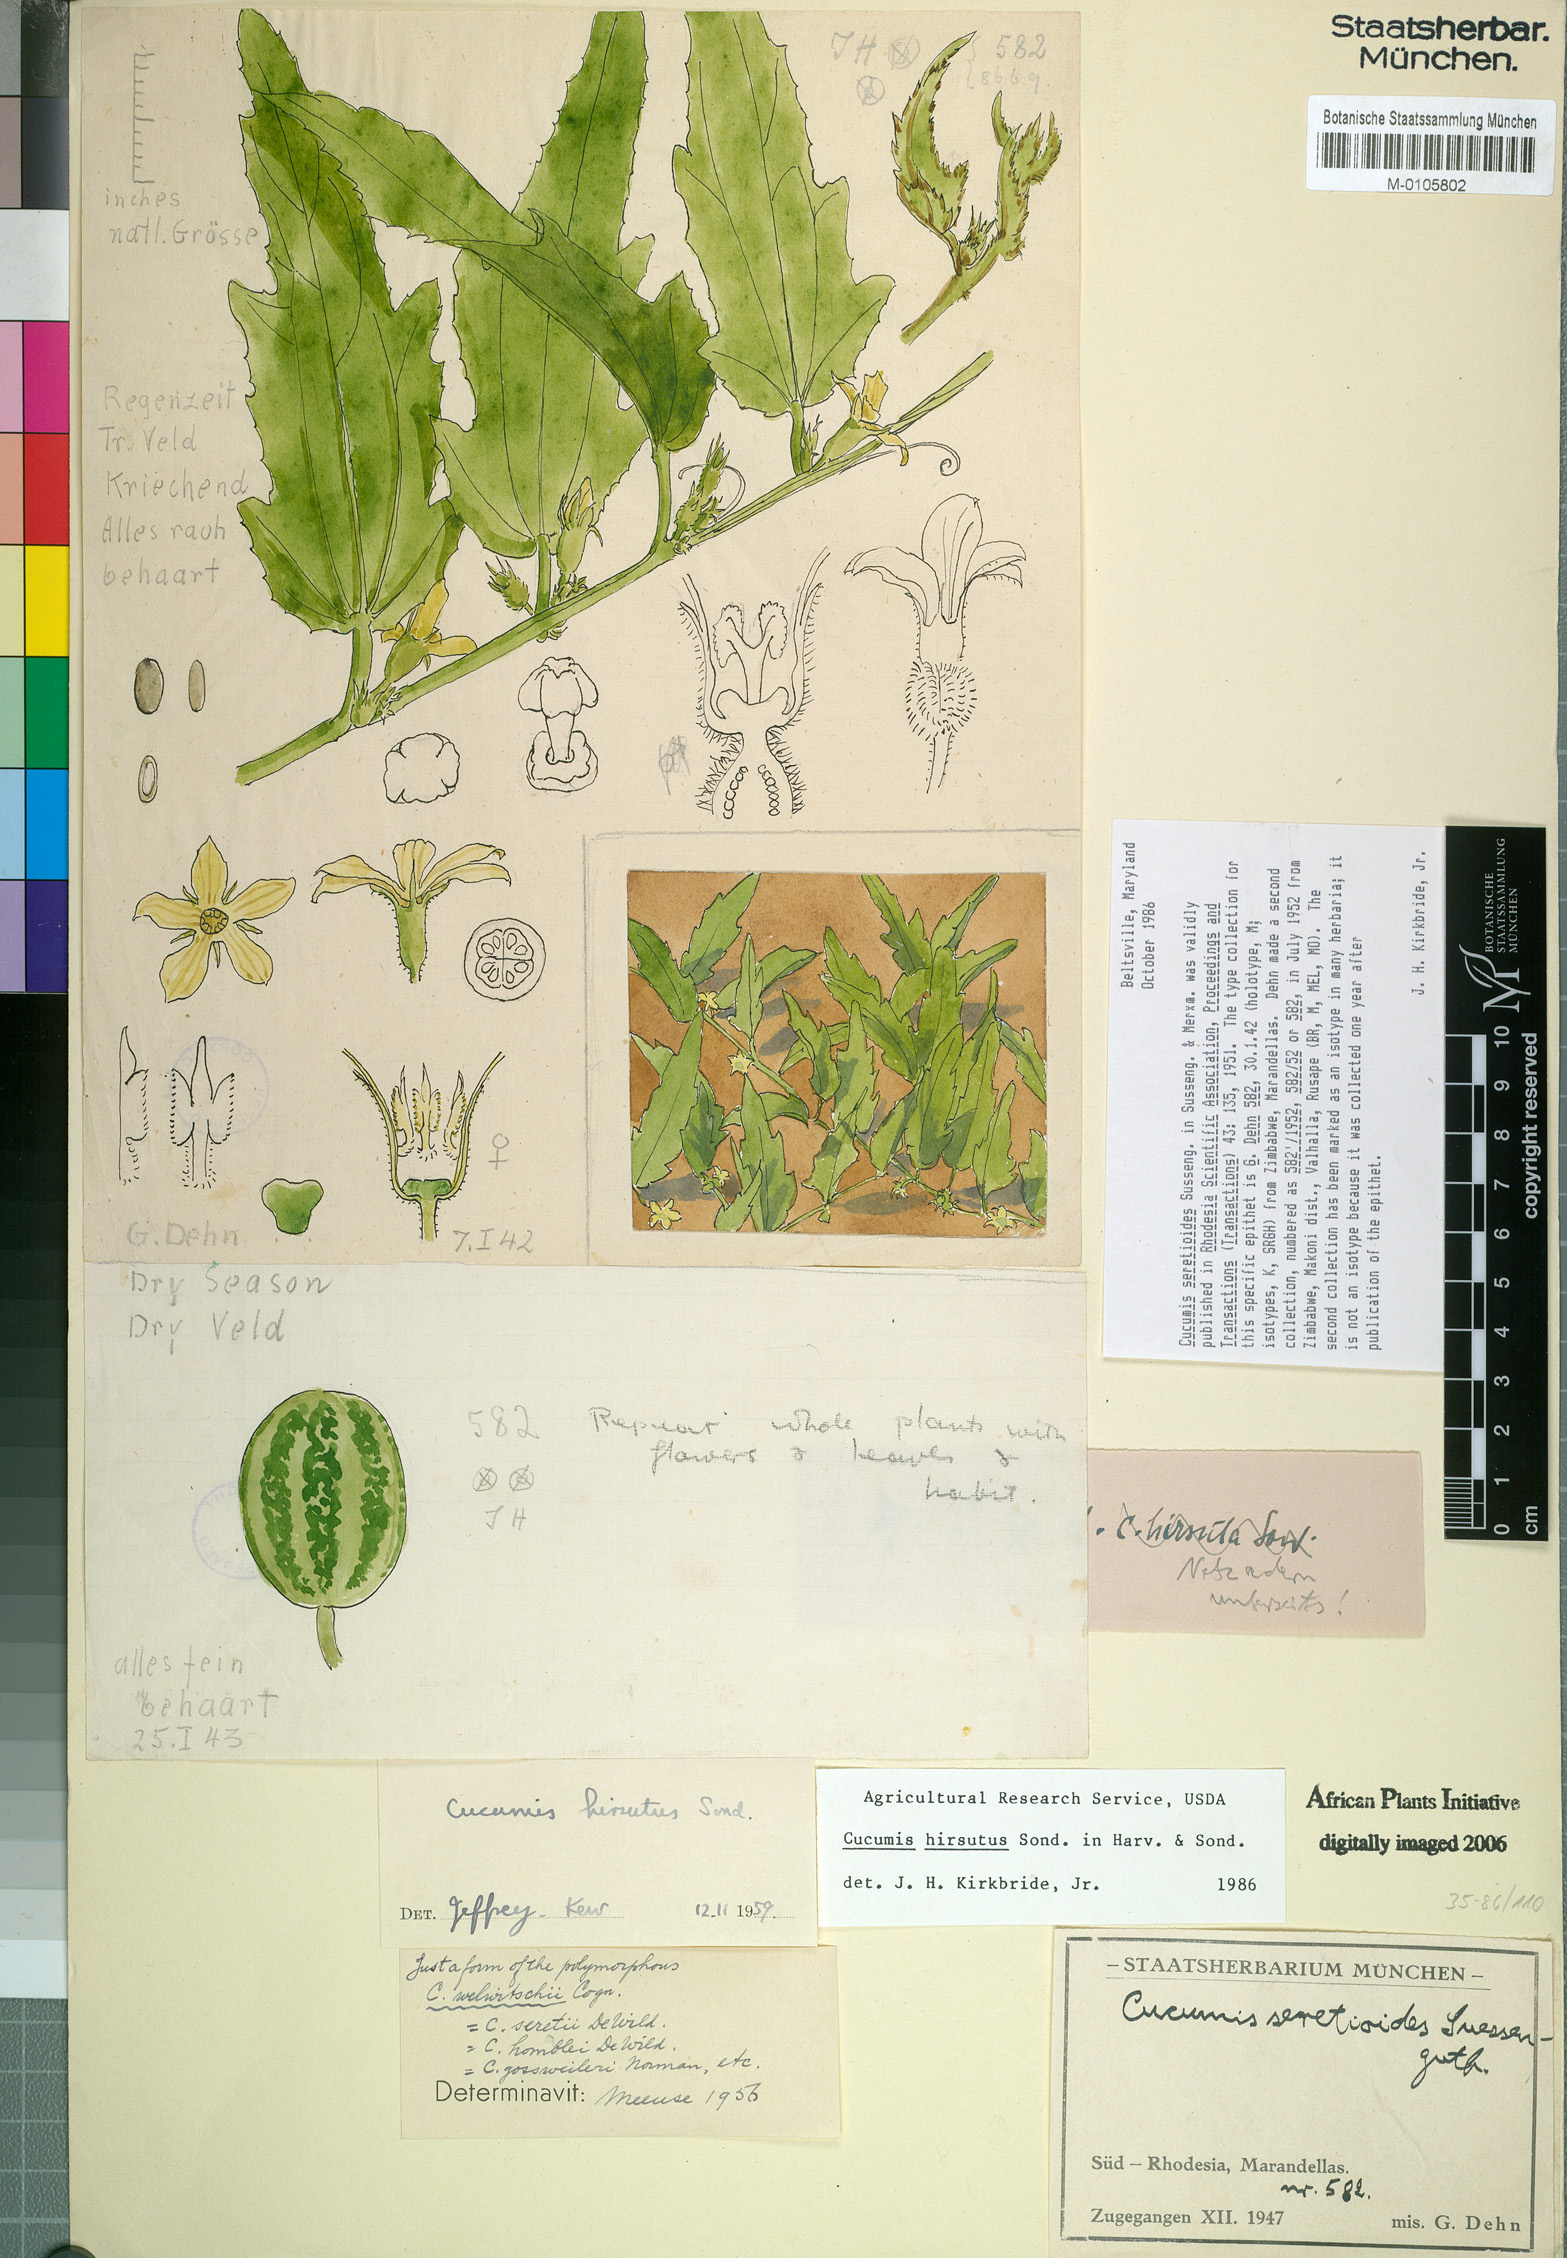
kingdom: Plantae
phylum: Tracheophyta
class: Magnoliopsida
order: Cucurbitales
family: Cucurbitaceae
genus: Cucumis
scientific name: Cucumis hirsutus
